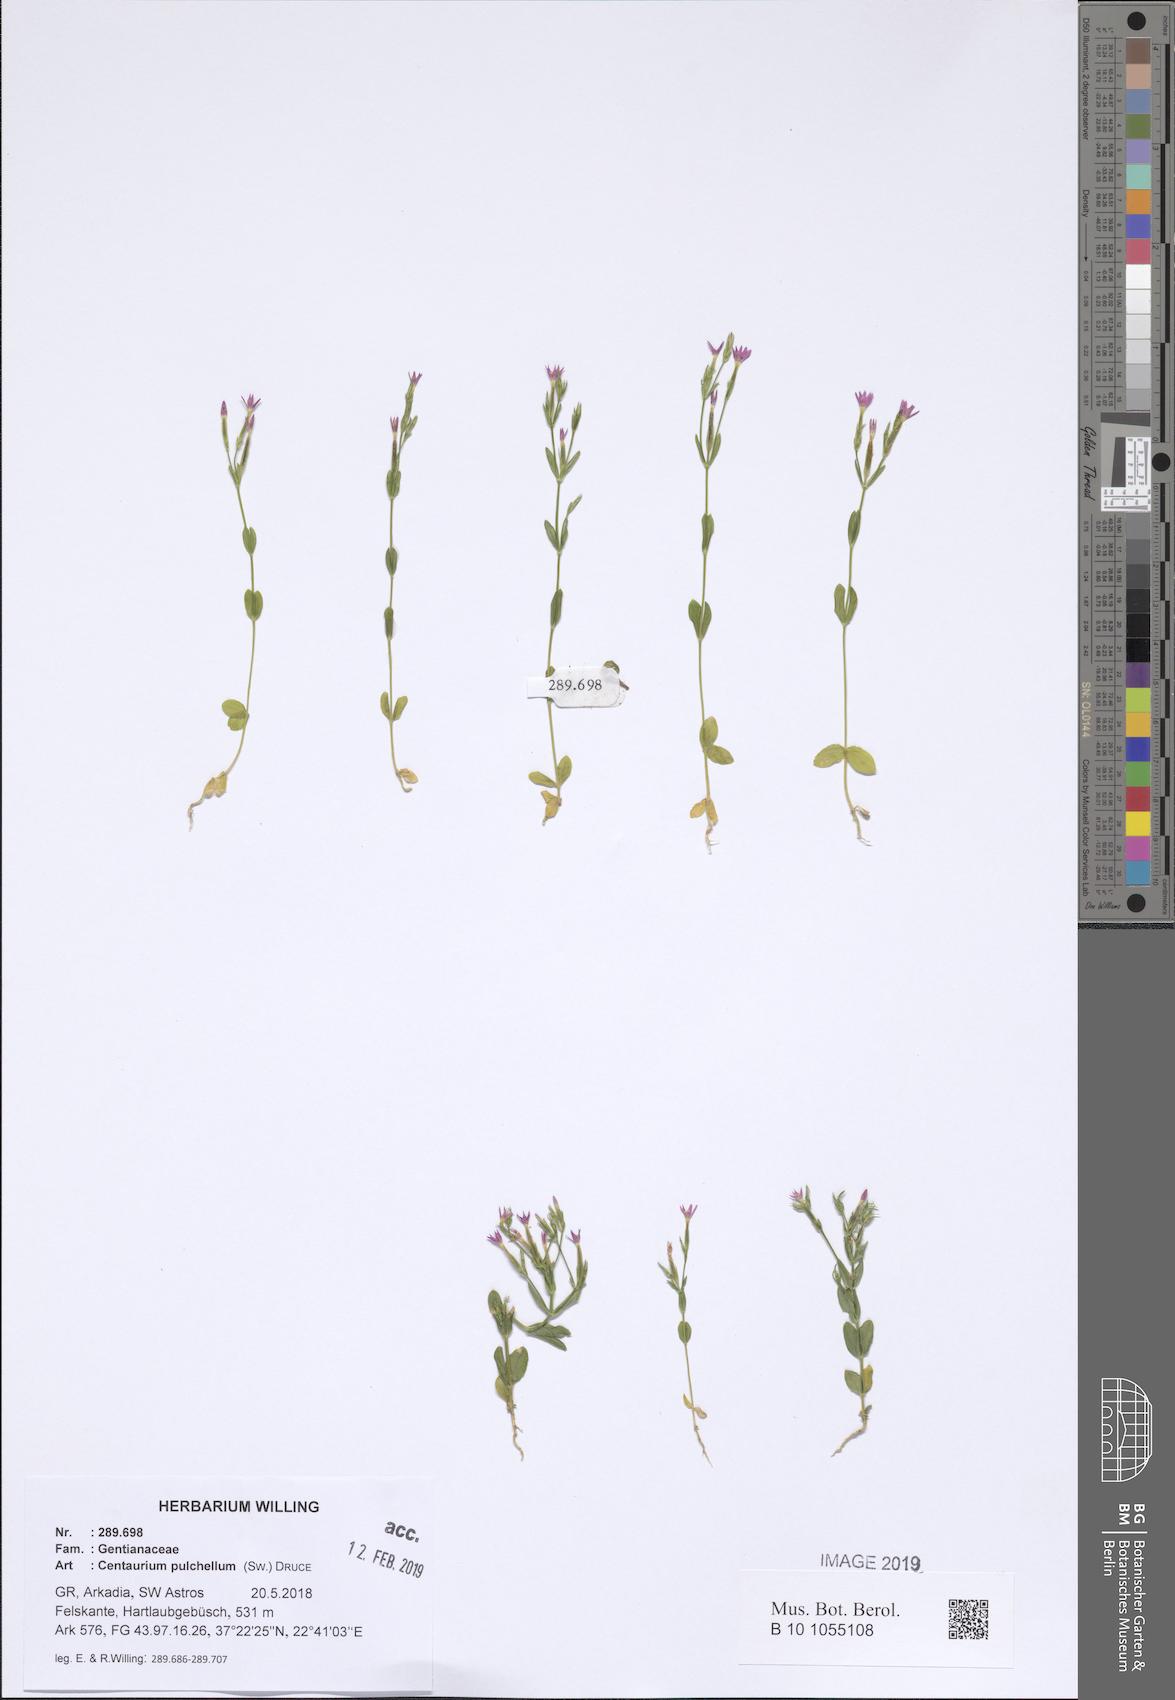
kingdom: Plantae
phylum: Tracheophyta
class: Magnoliopsida
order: Gentianales
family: Gentianaceae
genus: Centaurium
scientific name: Centaurium pulchellum
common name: Lesser centaury
